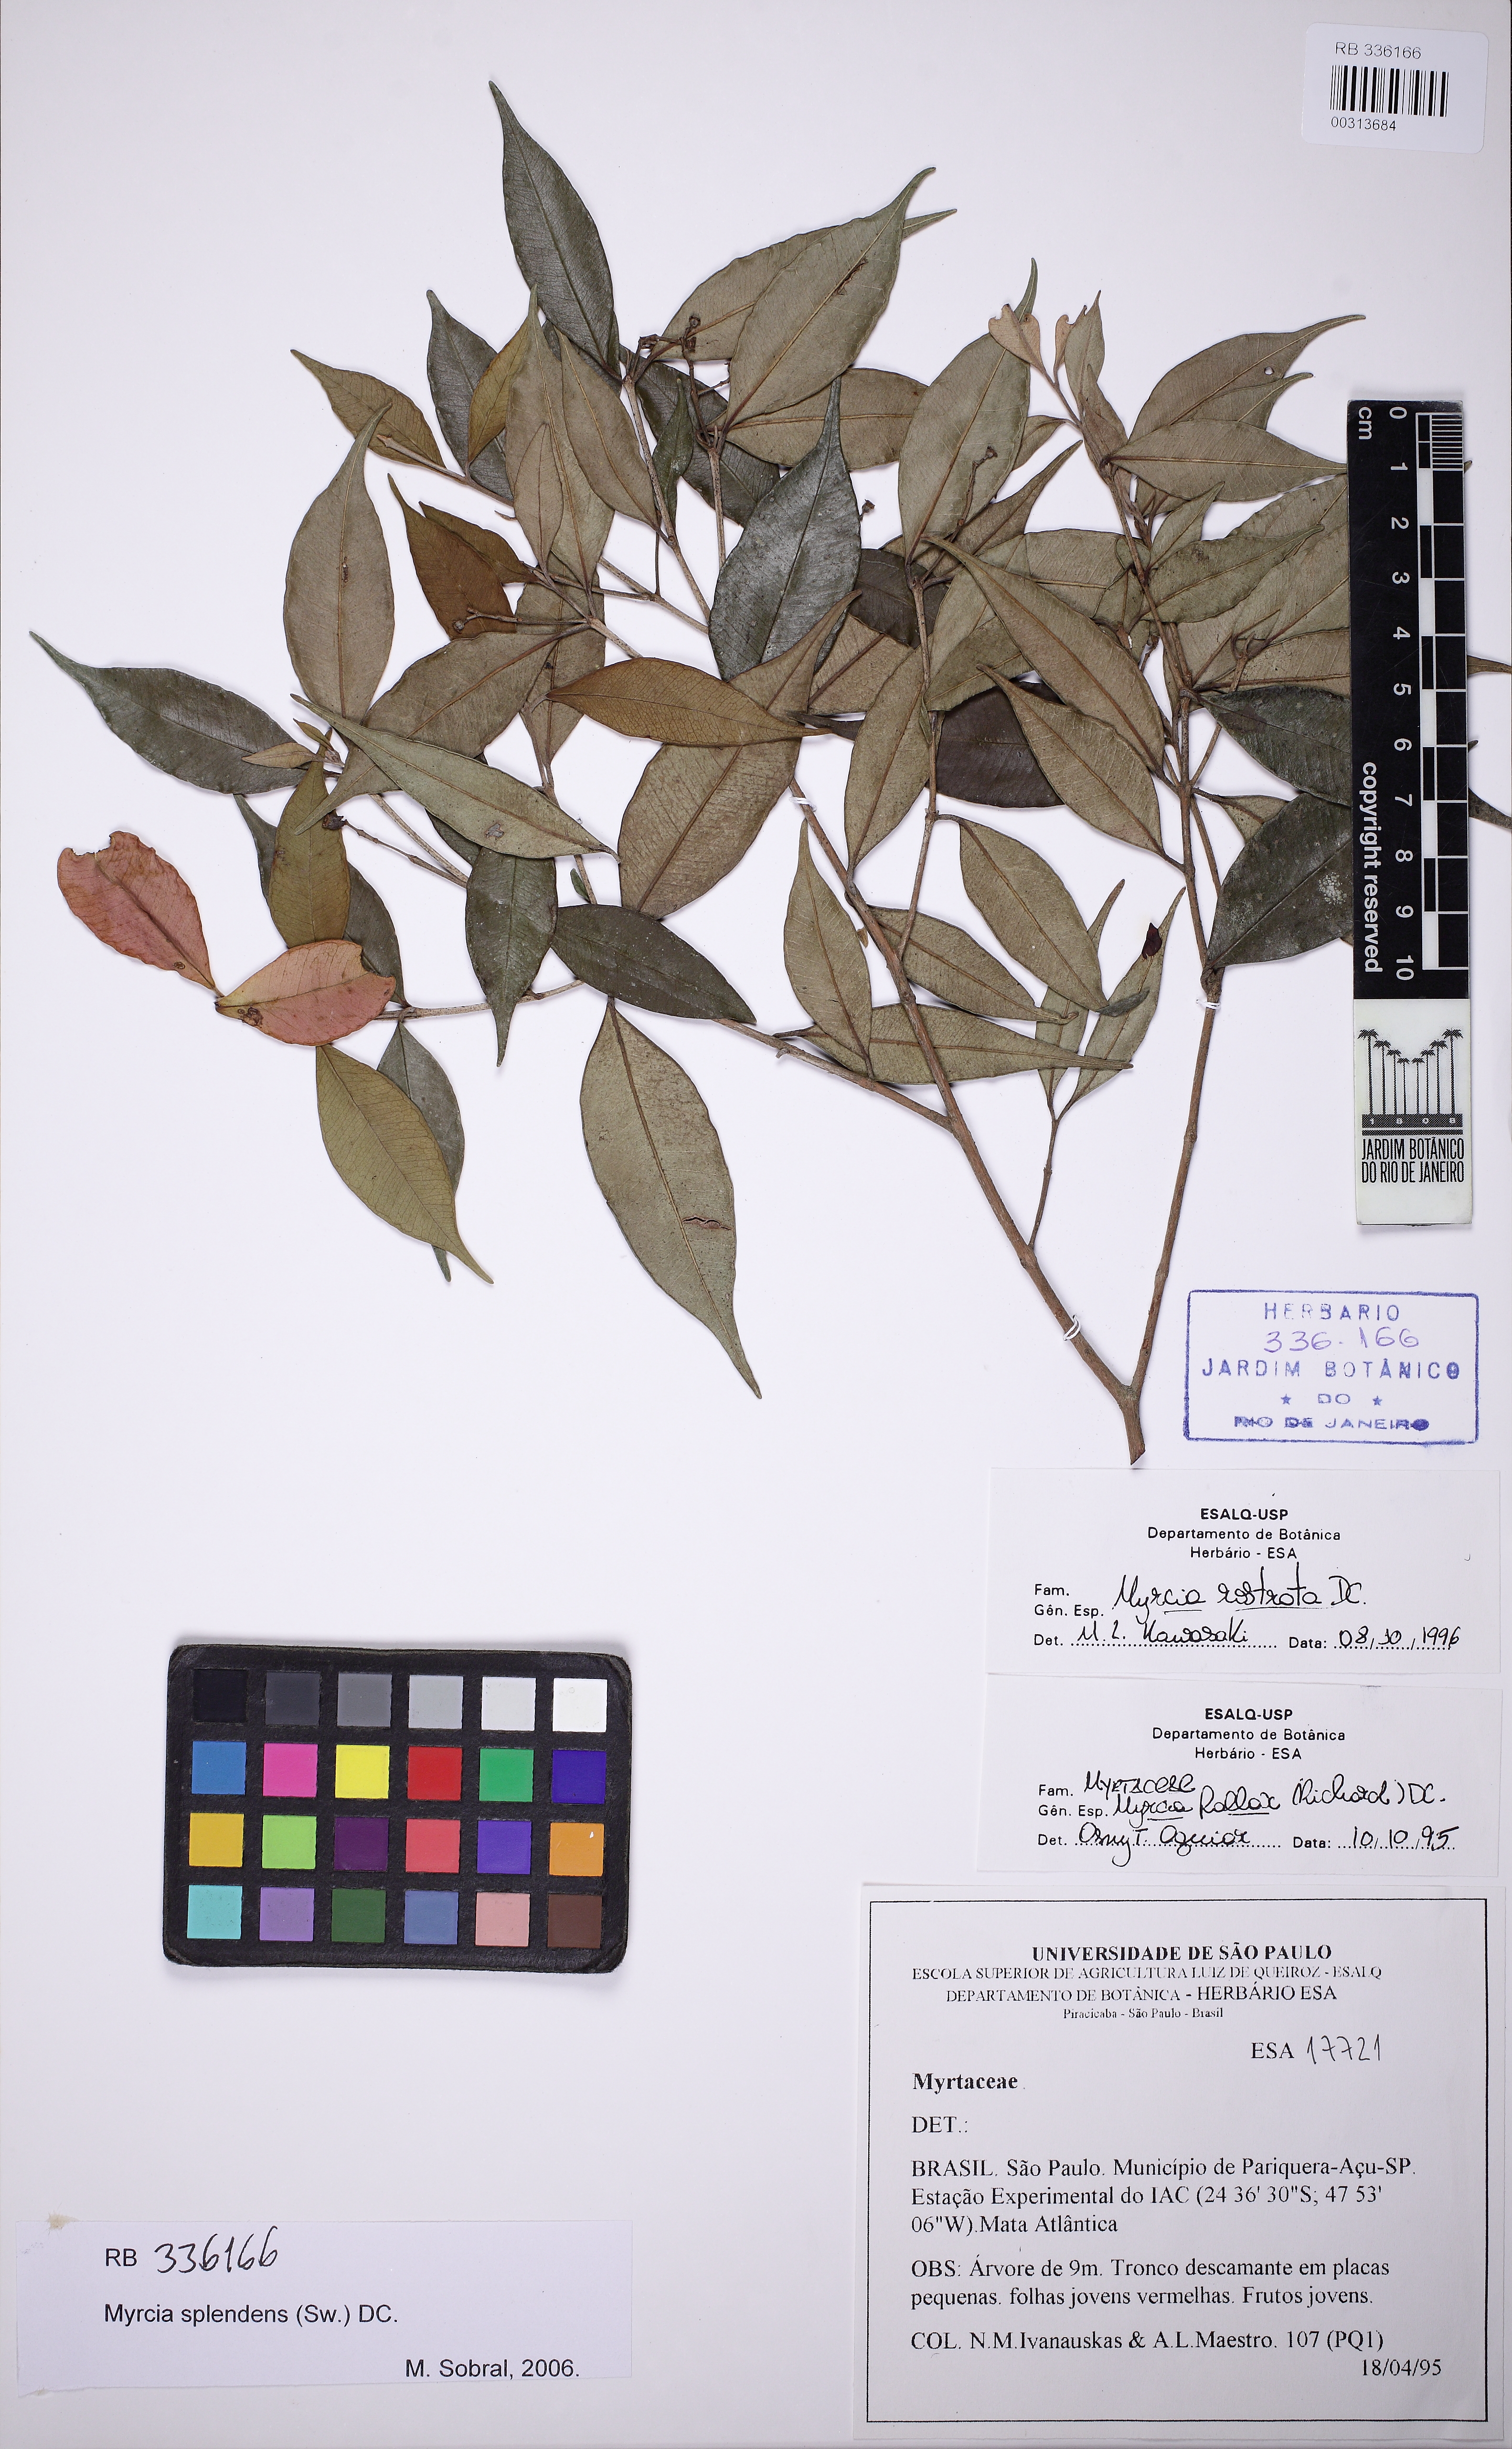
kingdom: Plantae
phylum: Tracheophyta
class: Magnoliopsida
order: Myrtales
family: Myrtaceae
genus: Myrcia
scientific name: Myrcia splendens
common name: Surinam cherry
